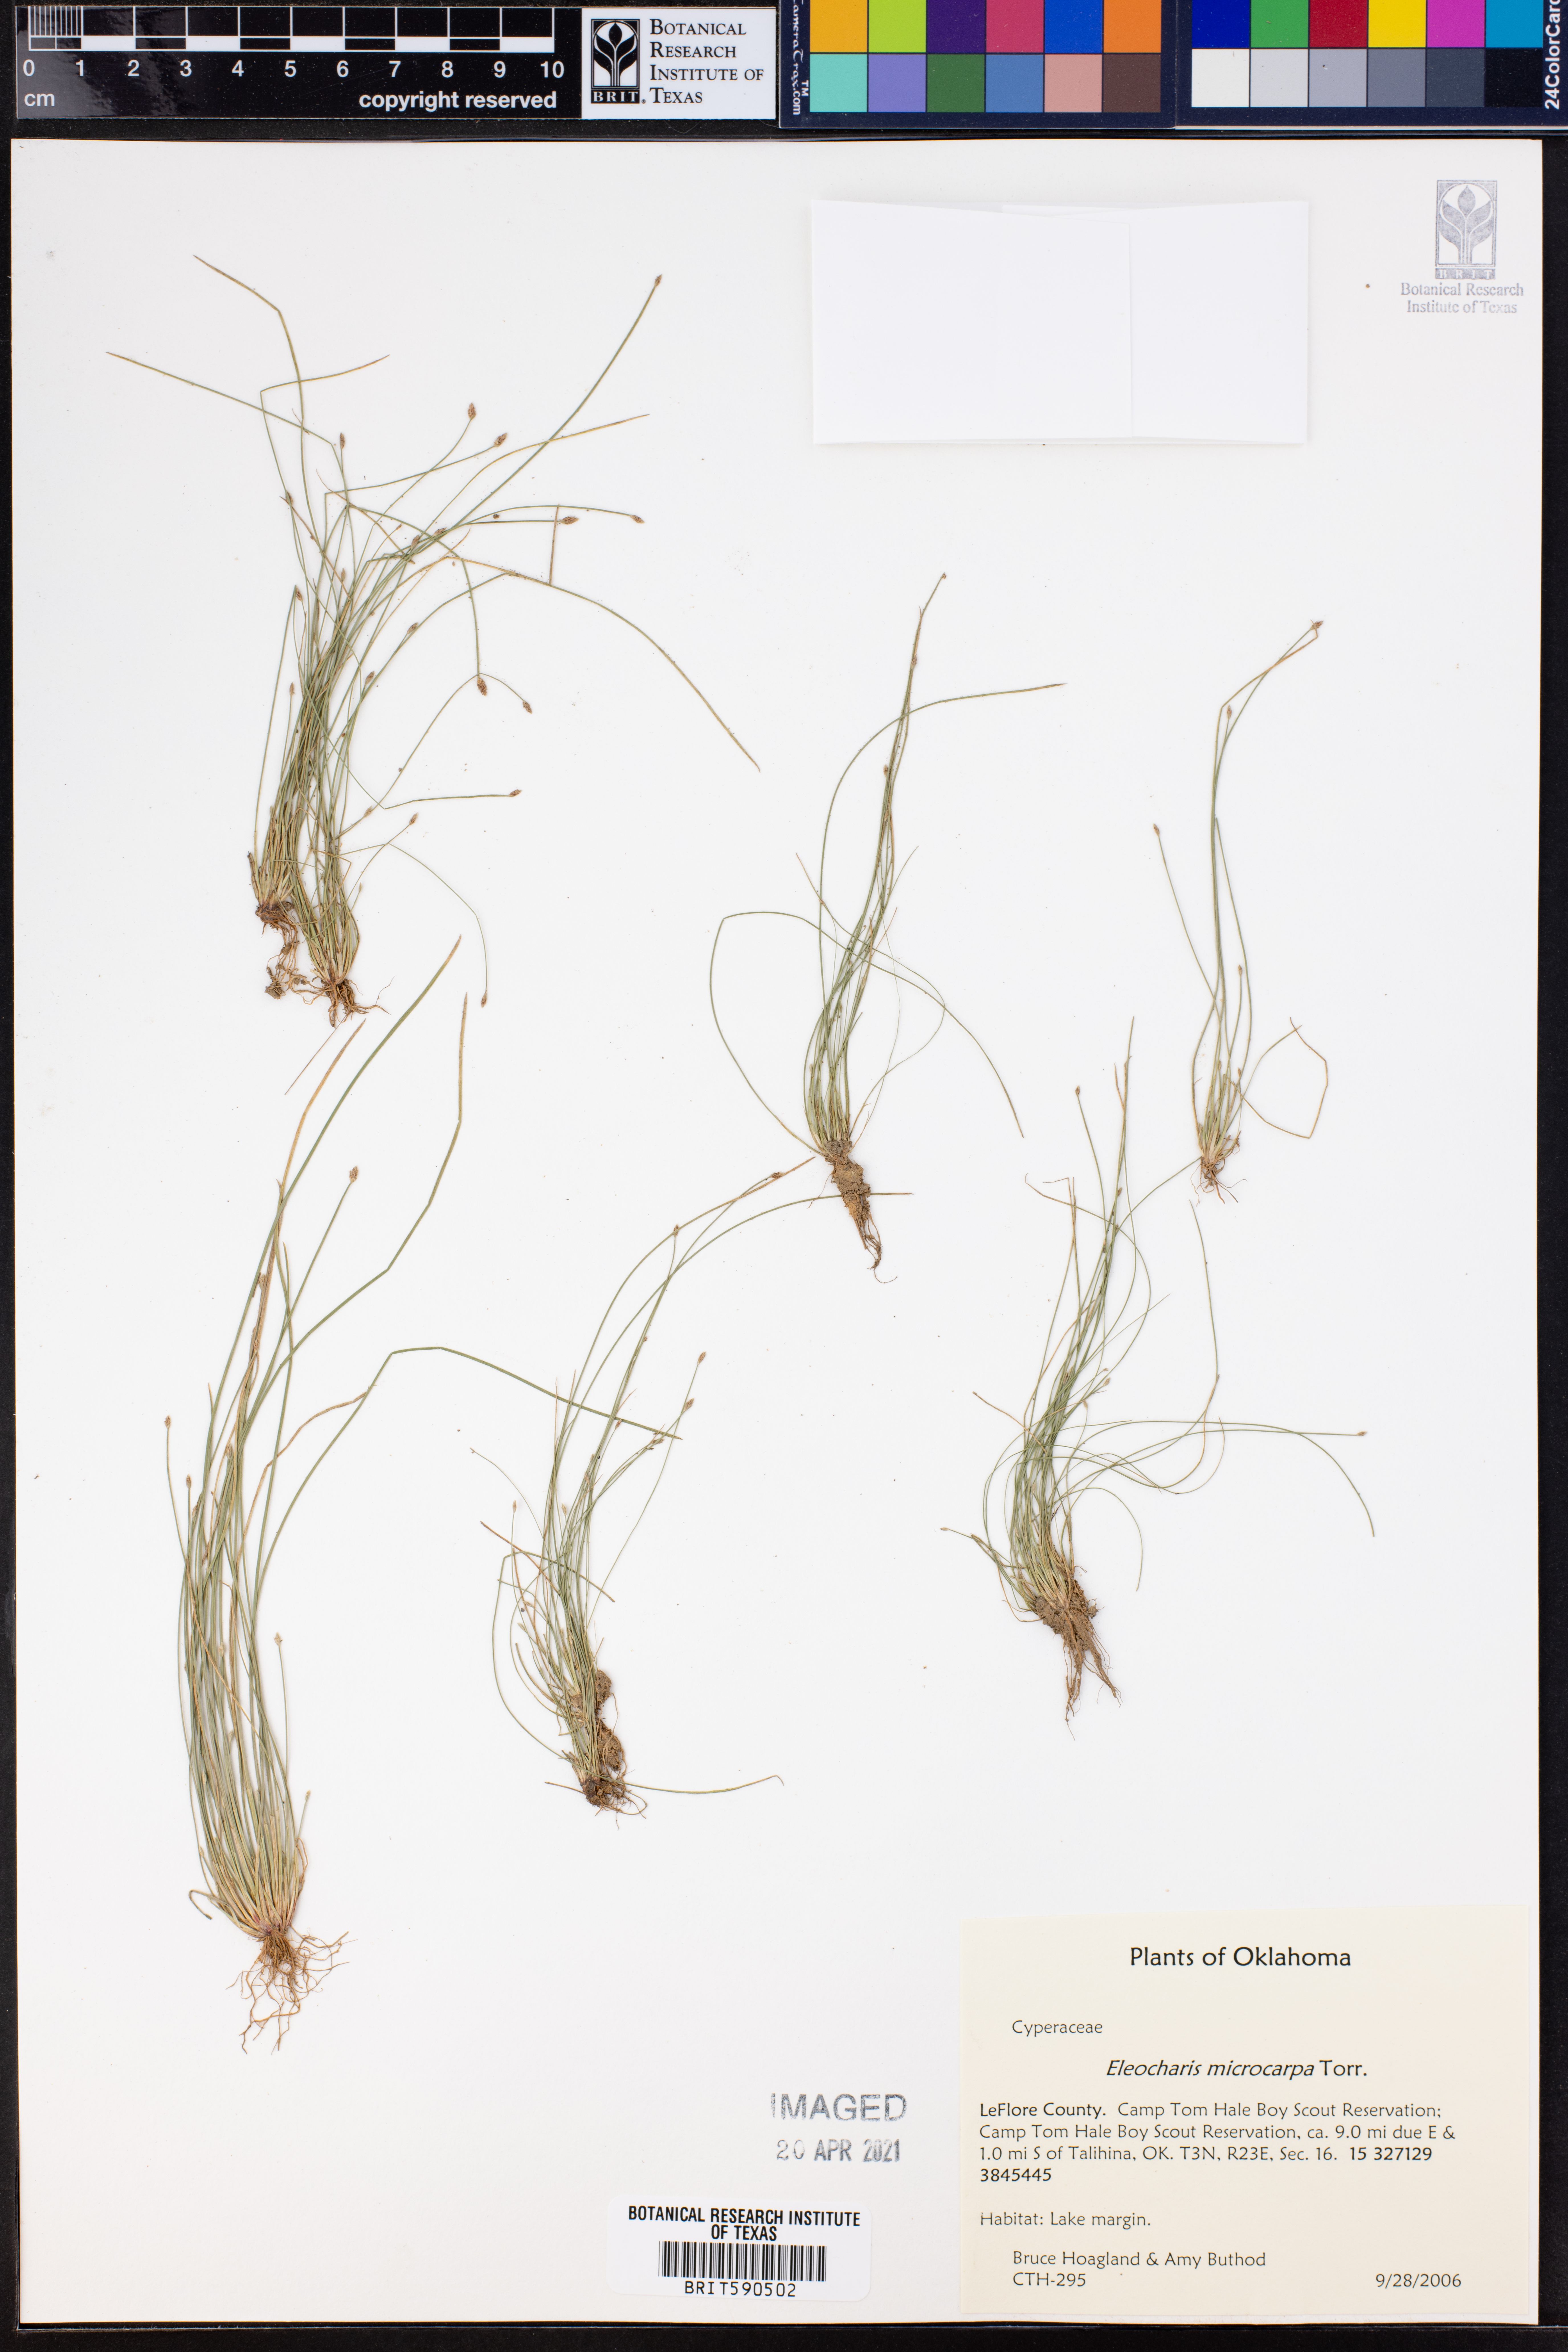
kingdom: Plantae
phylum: Tracheophyta
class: Liliopsida
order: Poales
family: Cyperaceae
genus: Eleocharis
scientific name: Eleocharis microcarpa
